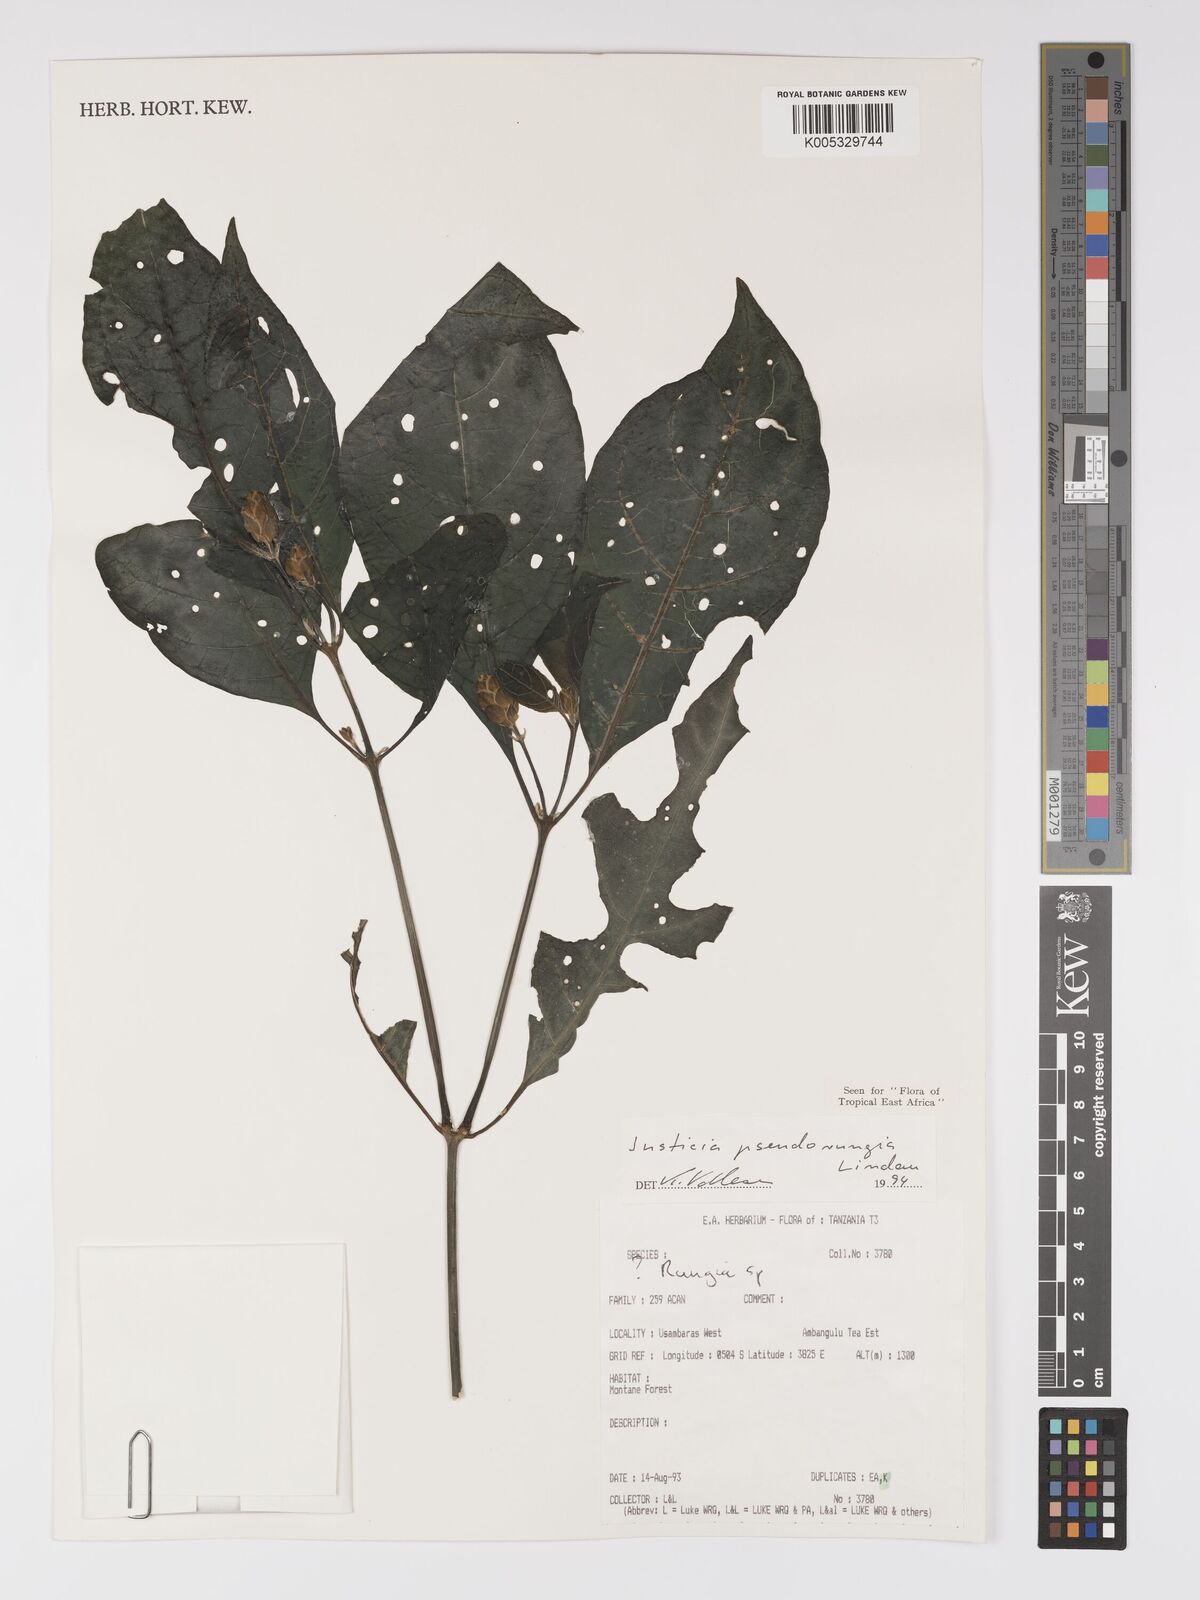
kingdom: Plantae
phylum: Tracheophyta
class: Magnoliopsida
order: Lamiales
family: Acanthaceae
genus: Justicia
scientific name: Justicia pseudorungia
